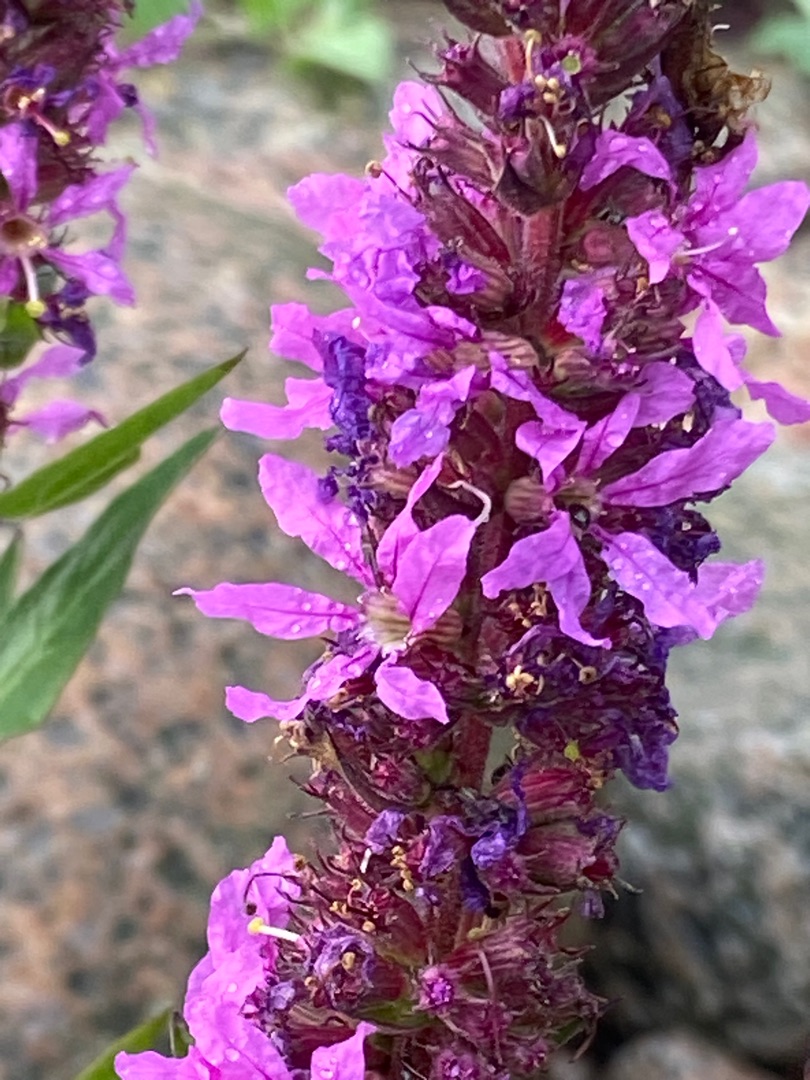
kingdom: Plantae
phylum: Tracheophyta
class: Magnoliopsida
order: Myrtales
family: Lythraceae
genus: Lythrum
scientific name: Lythrum salicaria
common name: Kattehale
